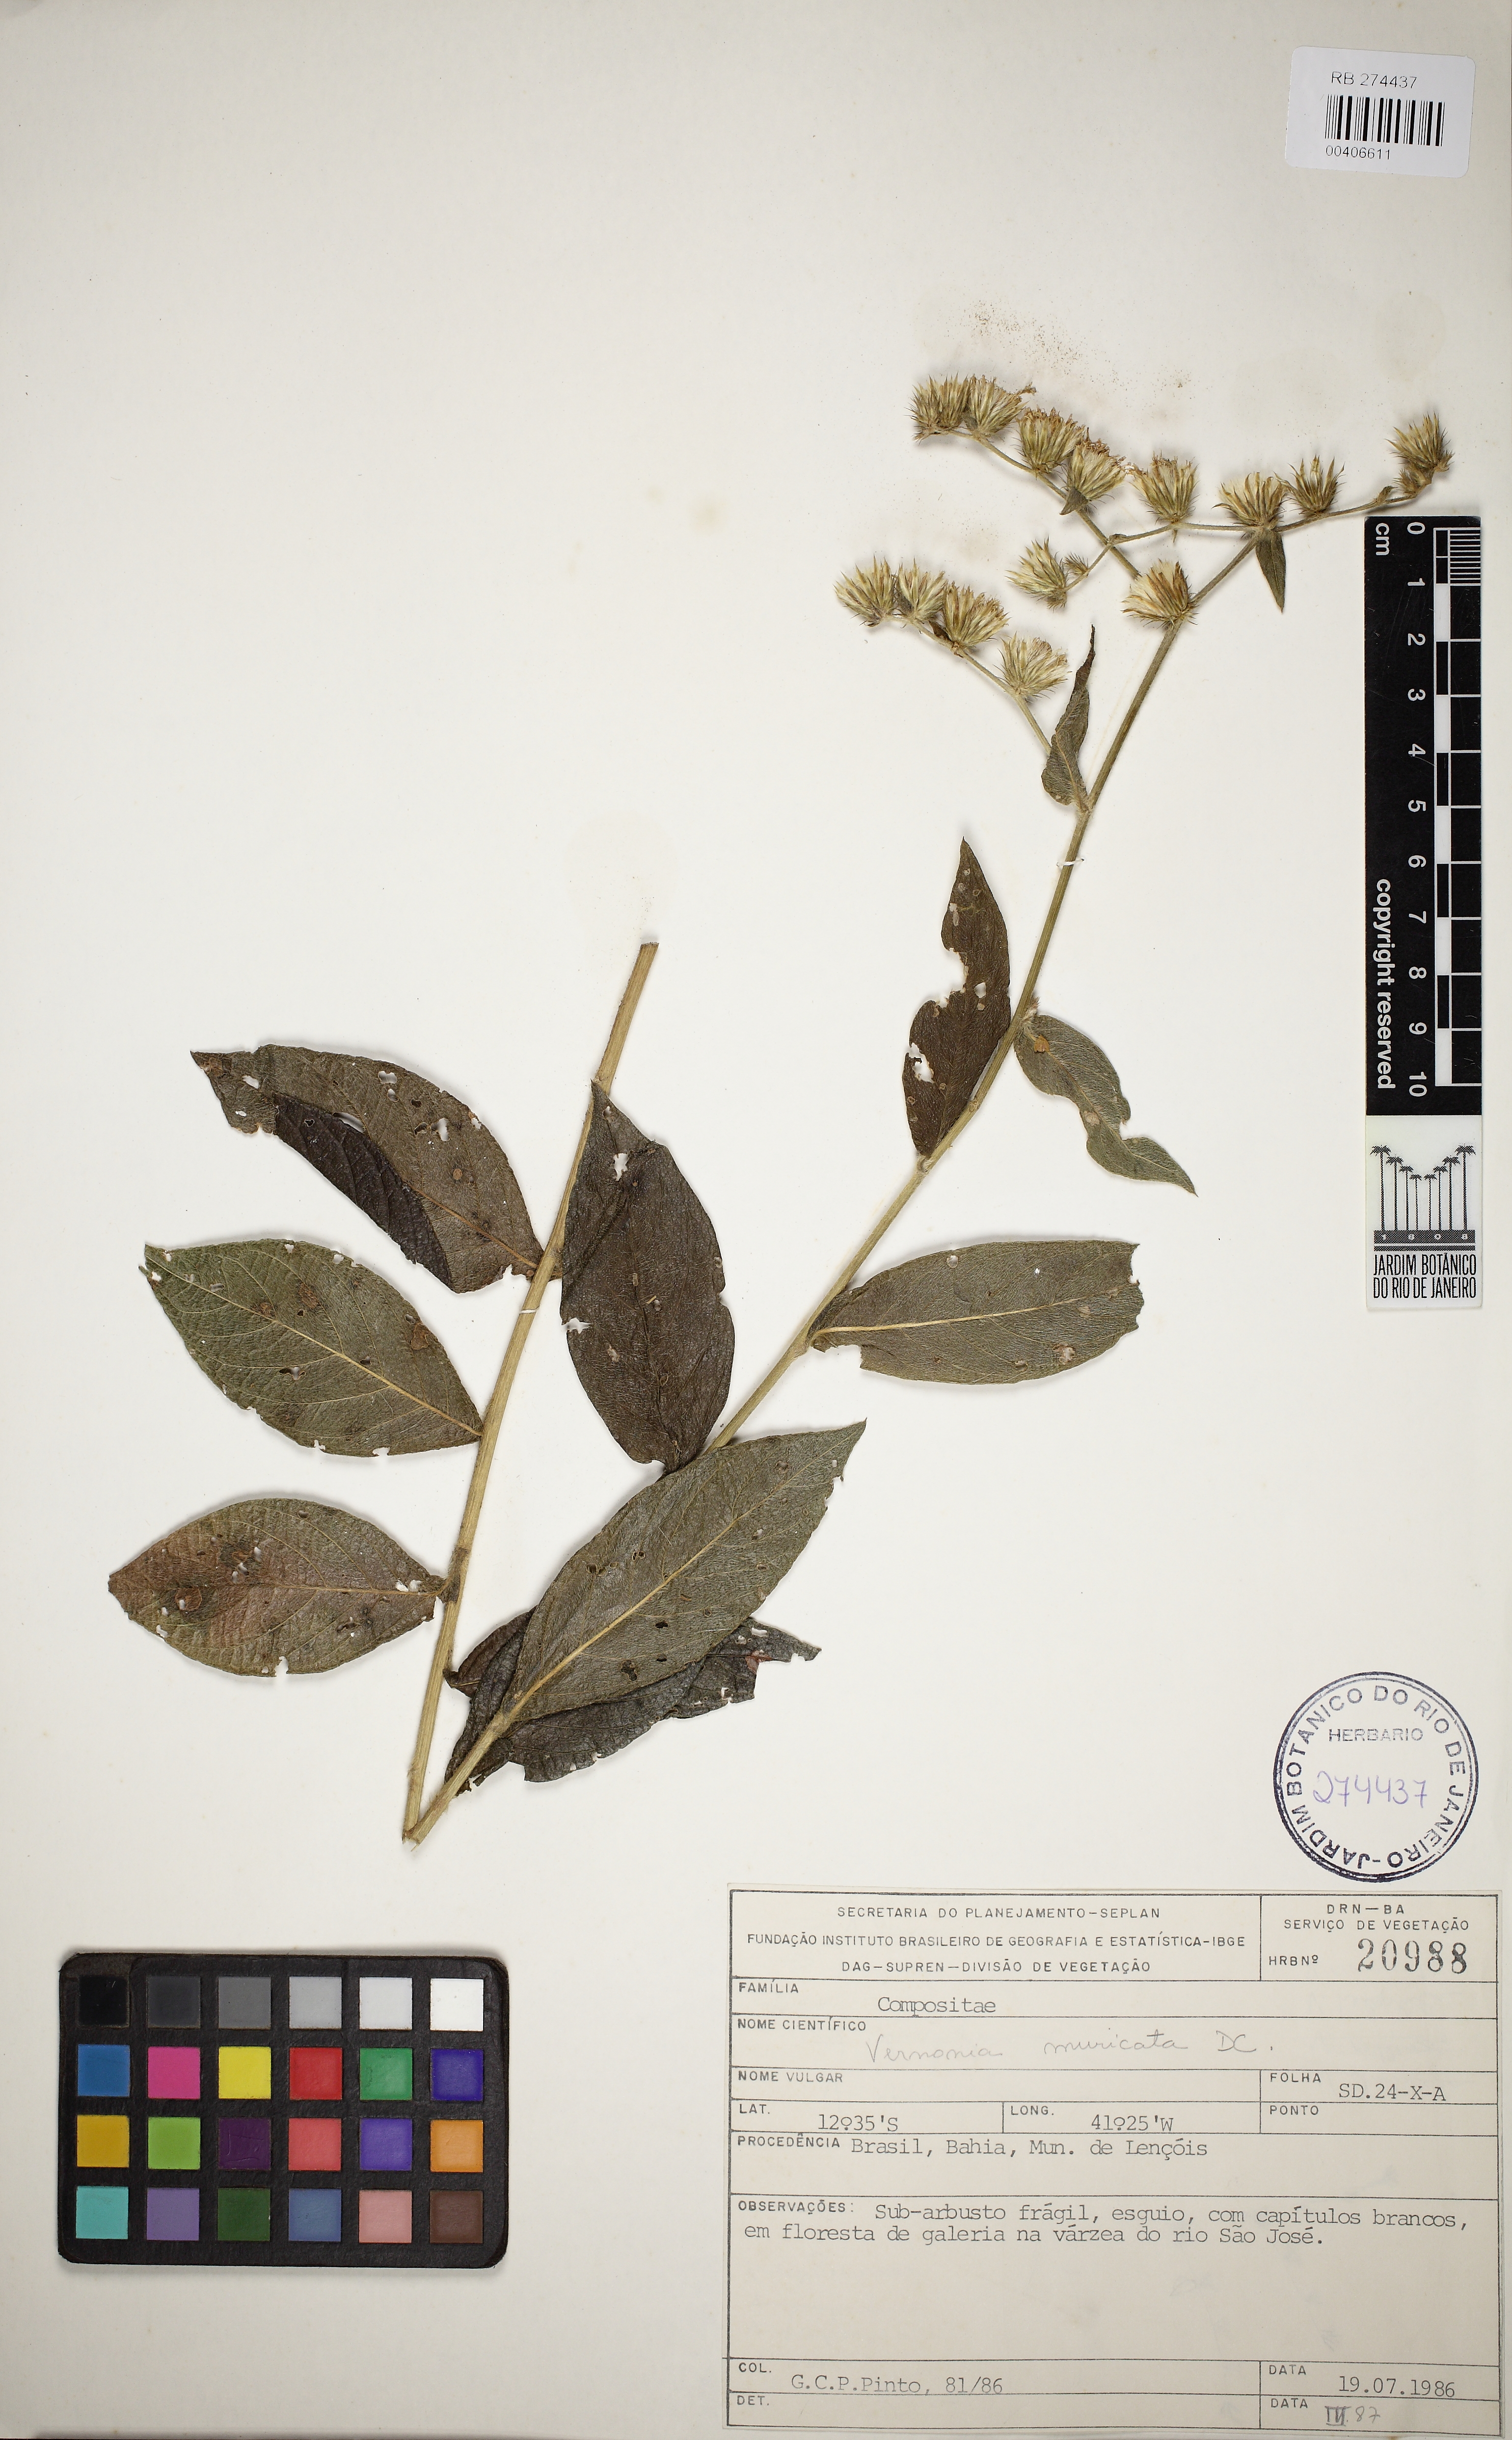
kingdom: Plantae
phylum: Tracheophyta
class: Magnoliopsida
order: Asterales
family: Asteraceae
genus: Lepidaploa
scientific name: Lepidaploa muricata
